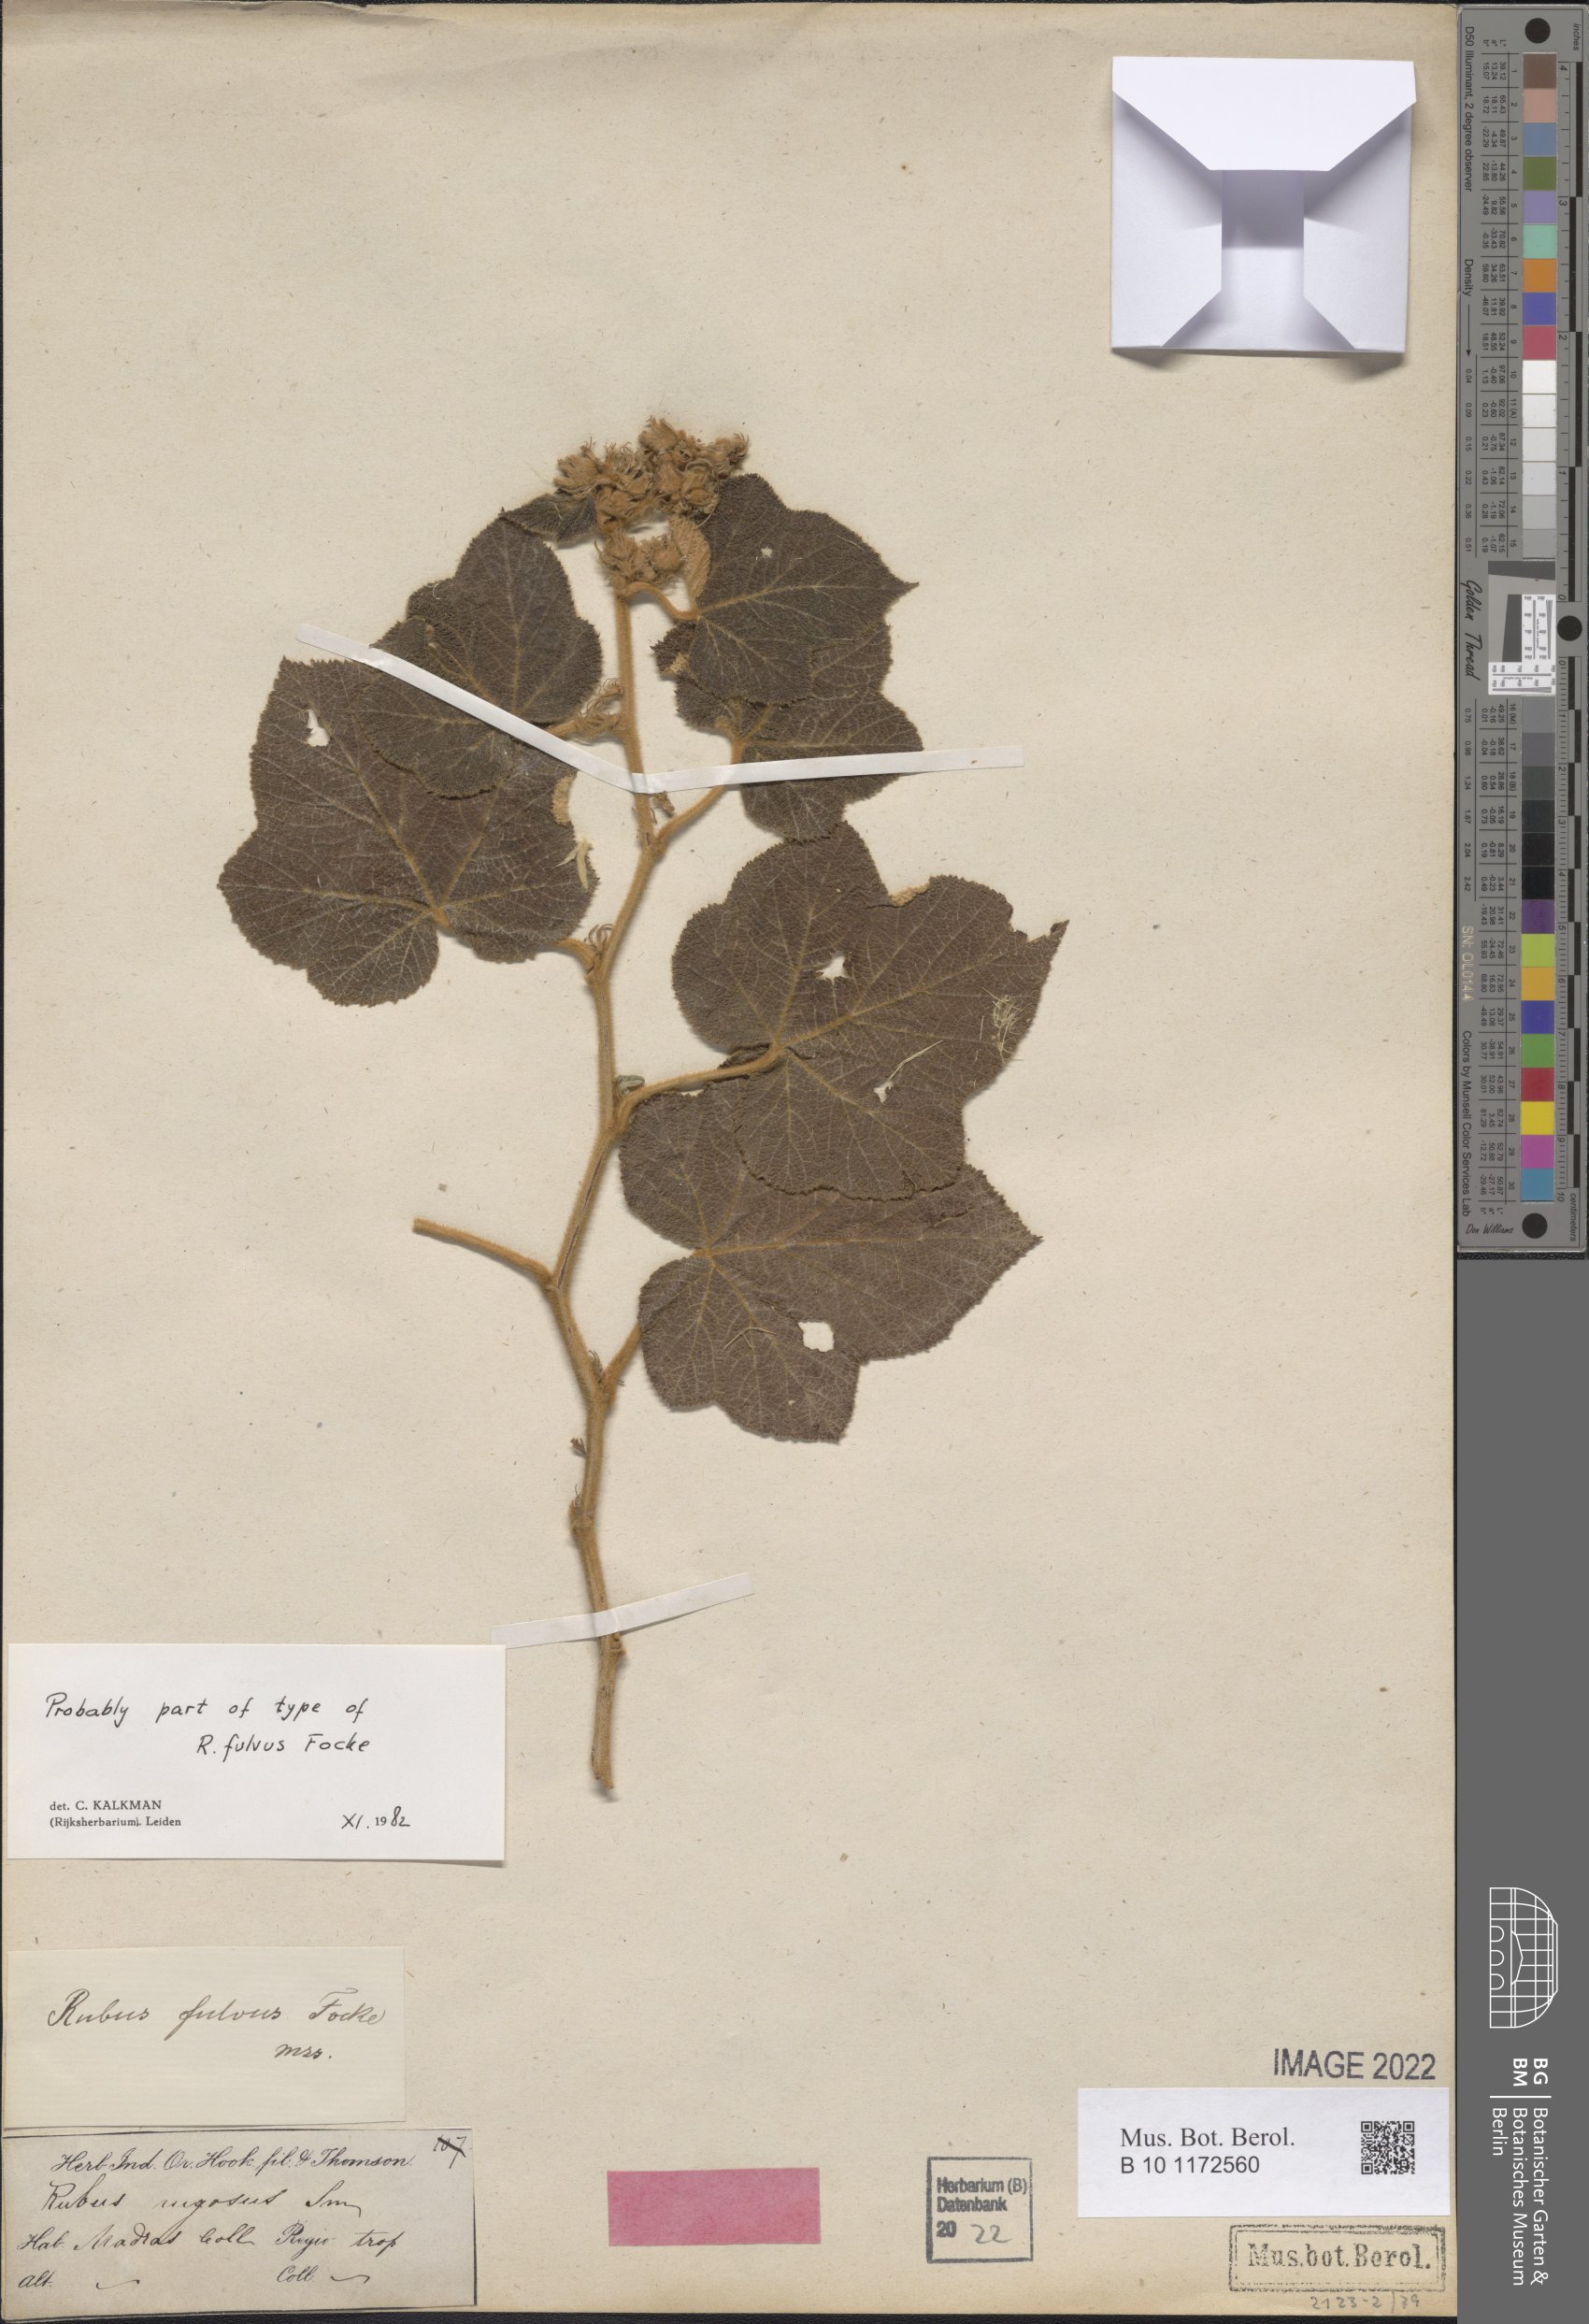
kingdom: Plantae
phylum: Tracheophyta
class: Magnoliopsida
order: Rosales
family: Rosaceae
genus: Rubus
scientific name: Rubus glomeratus
